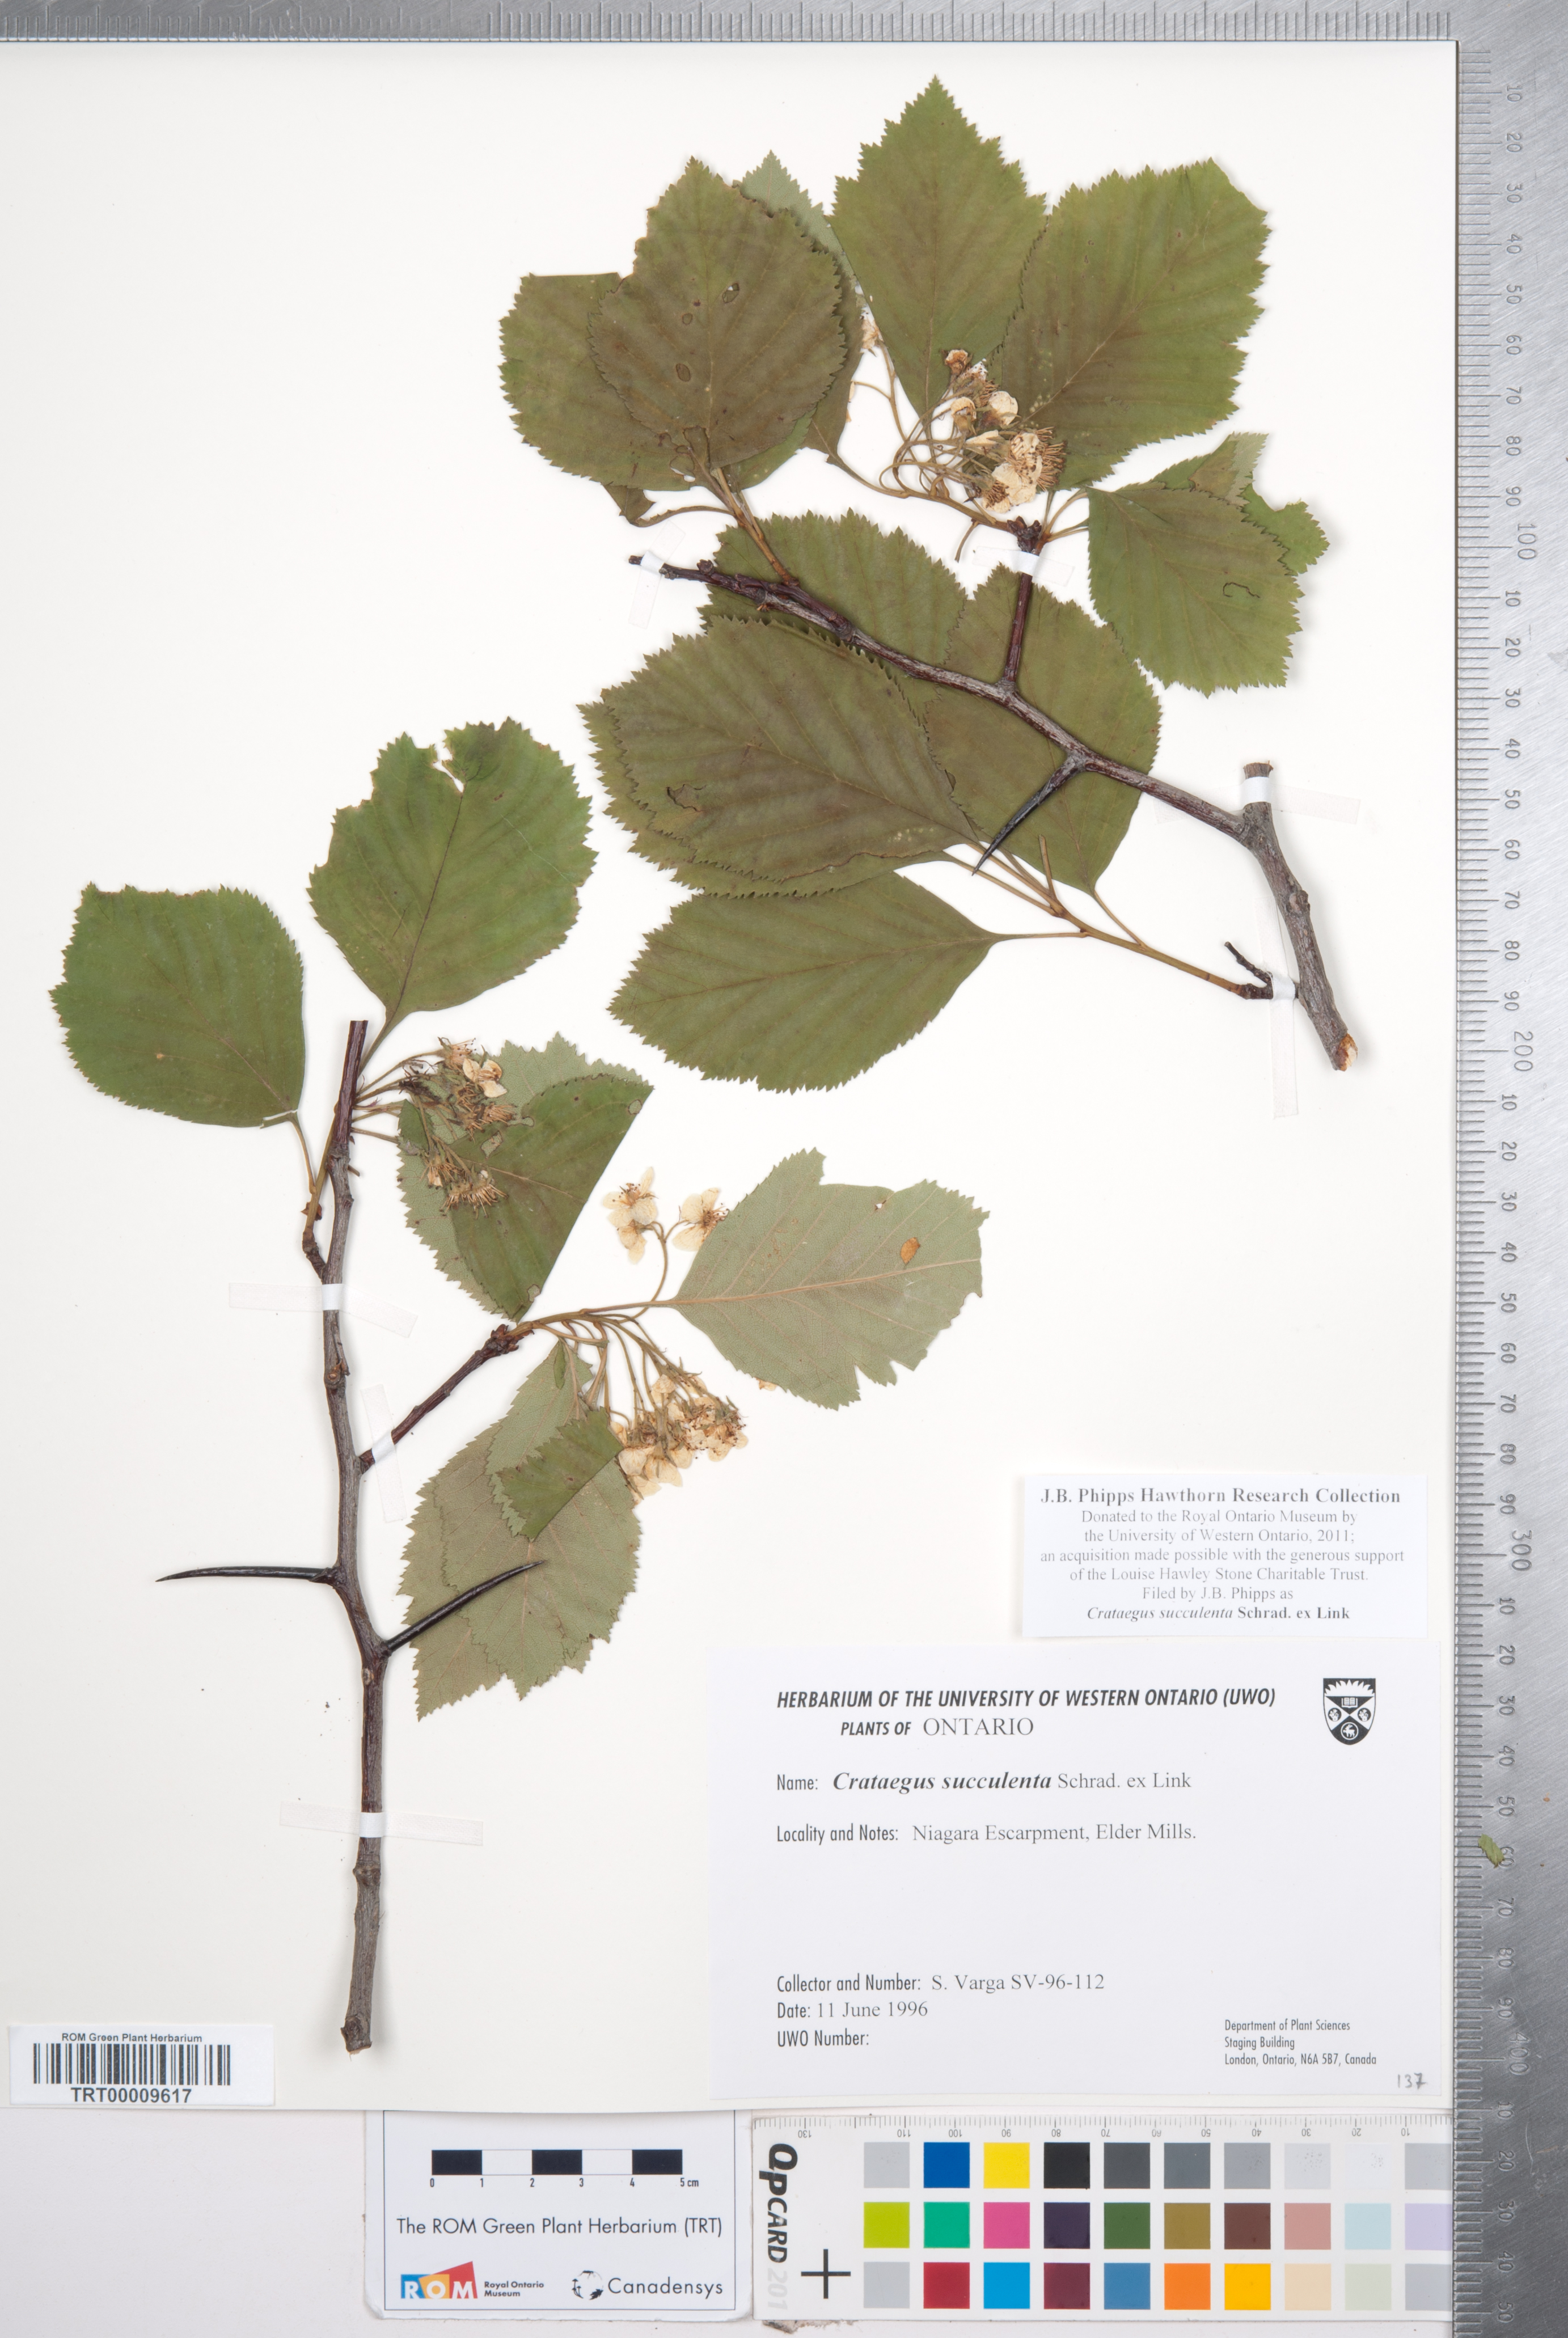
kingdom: Plantae
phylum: Tracheophyta
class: Magnoliopsida
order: Rosales
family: Rosaceae
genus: Crataegus
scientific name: Crataegus succulenta
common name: Fleshy hawthorn
